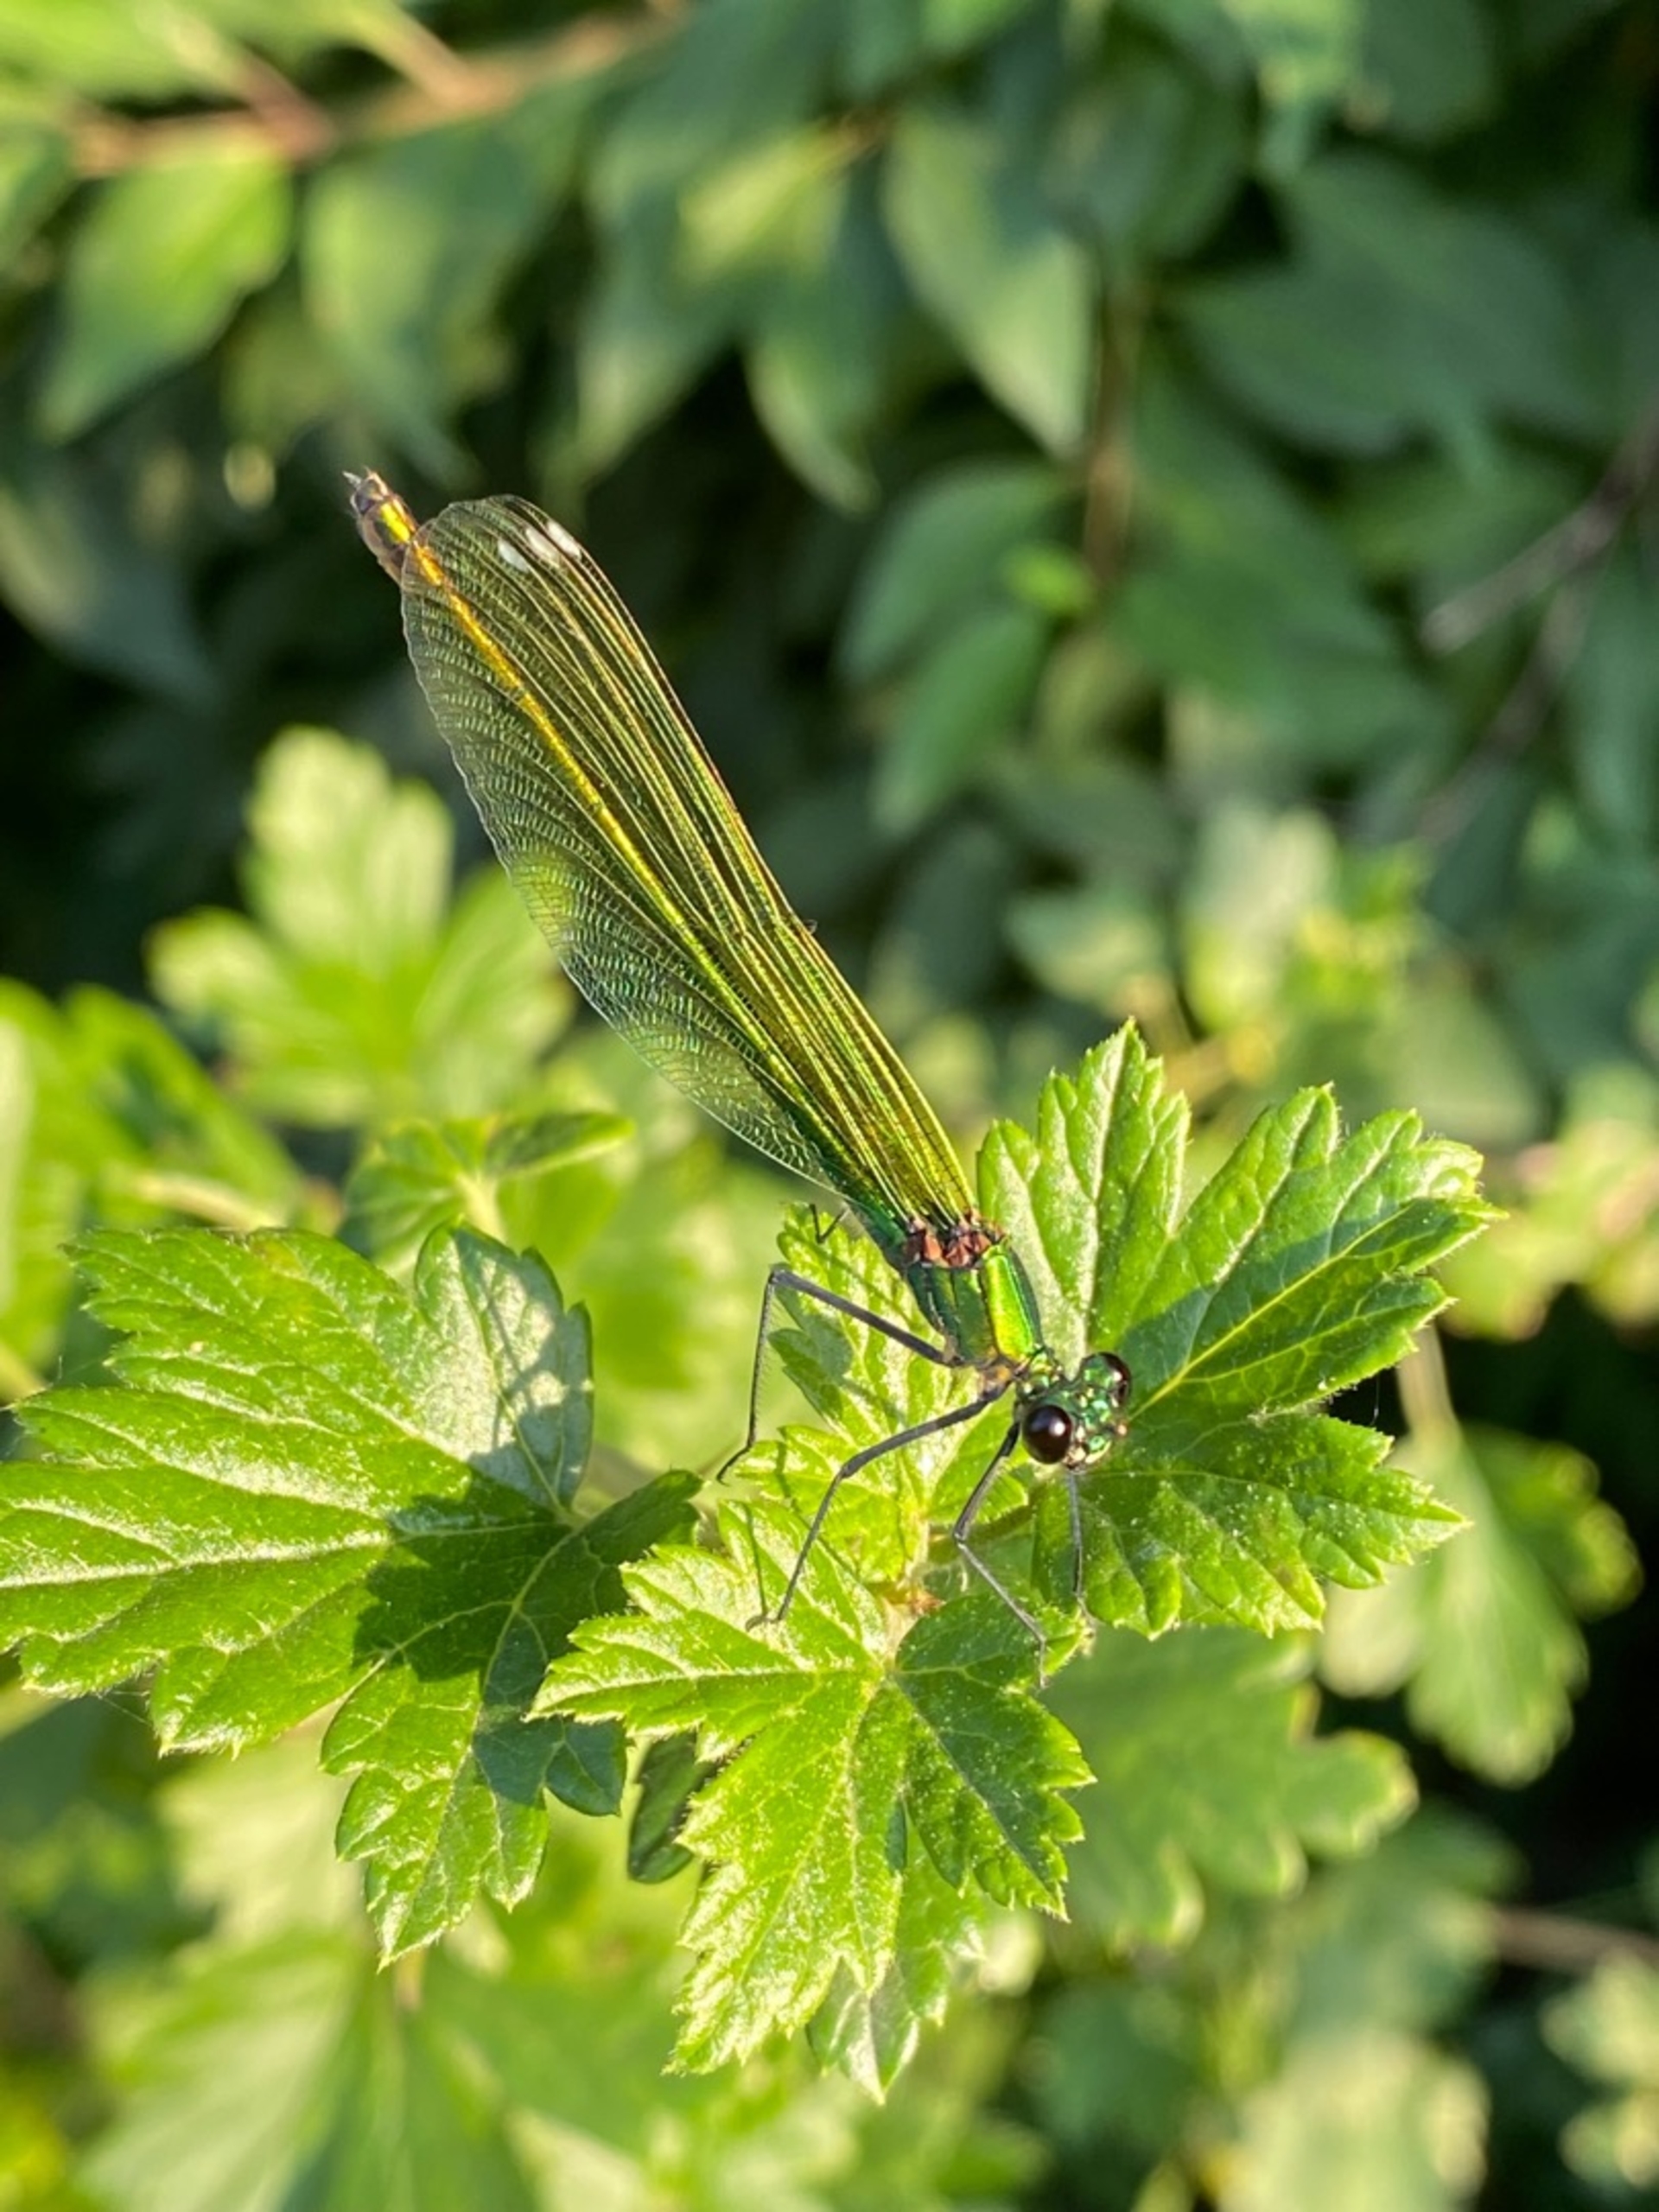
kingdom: Animalia
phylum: Arthropoda
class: Insecta
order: Odonata
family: Calopterygidae
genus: Calopteryx
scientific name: Calopteryx splendens
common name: Blåbåndet pragtvandnymfe
